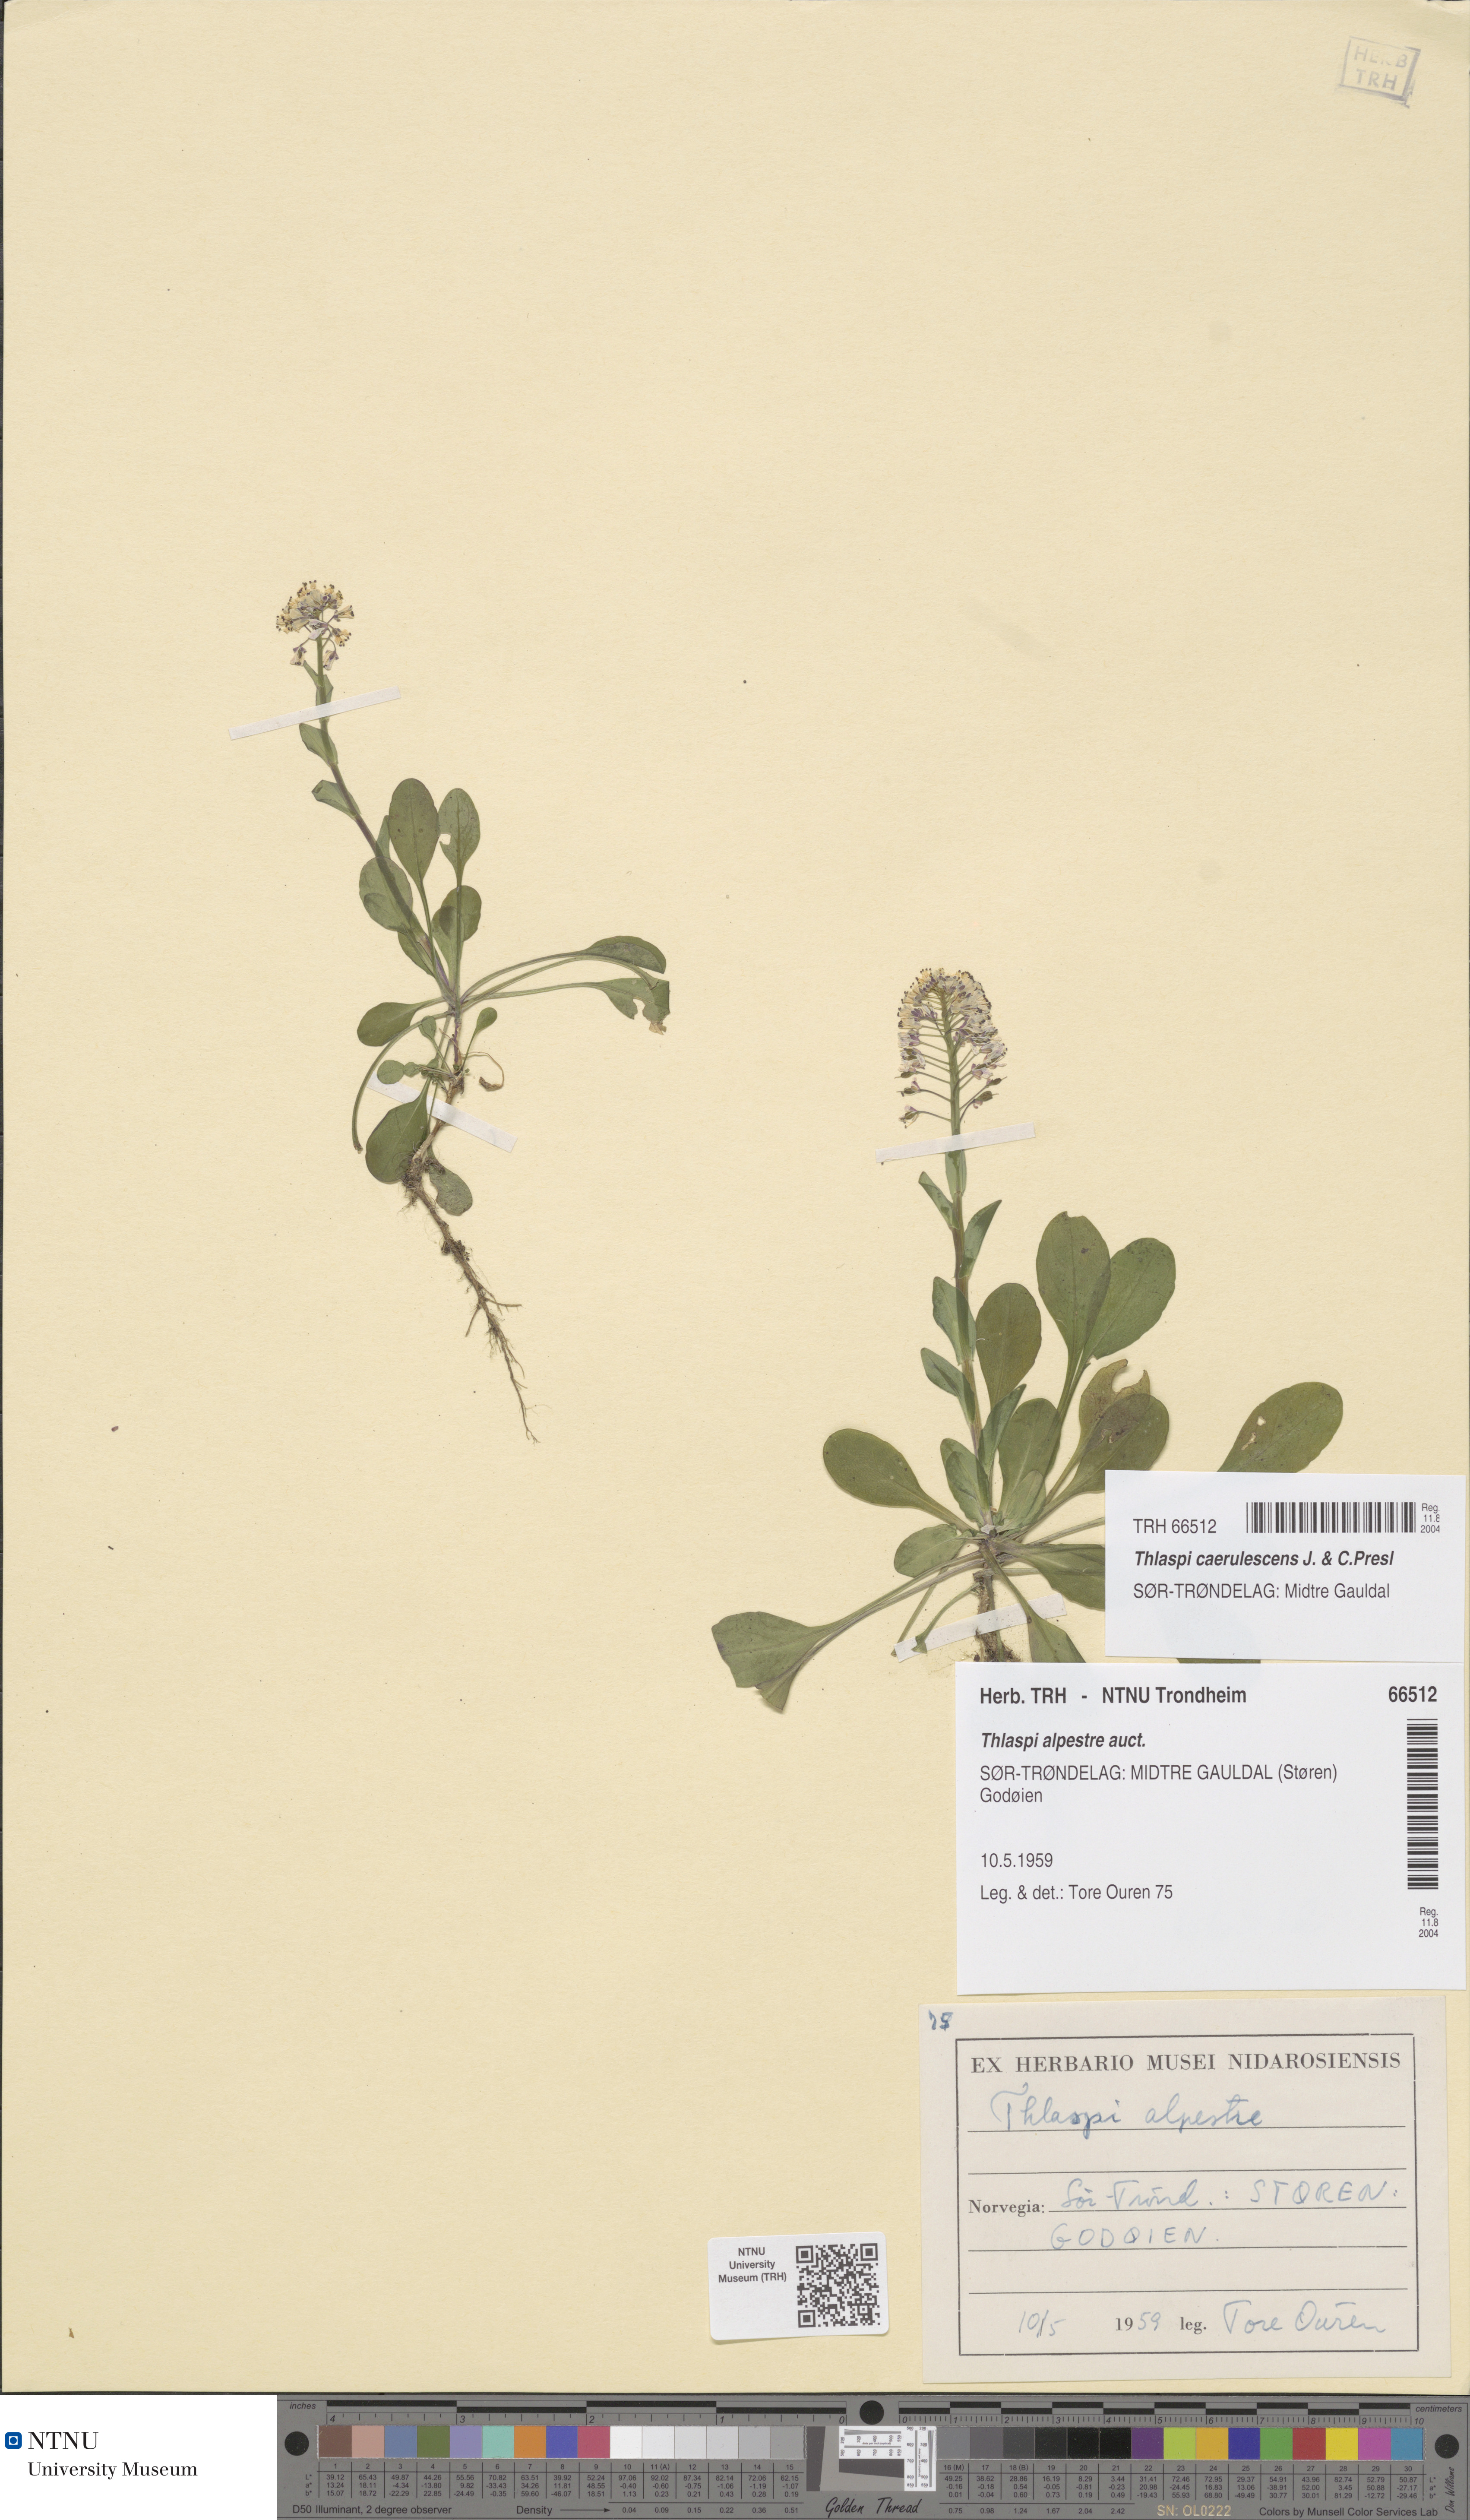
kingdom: Plantae
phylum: Tracheophyta
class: Magnoliopsida
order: Brassicales
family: Brassicaceae
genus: Noccaea
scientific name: Noccaea caerulescens
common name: Alpine pennycress
